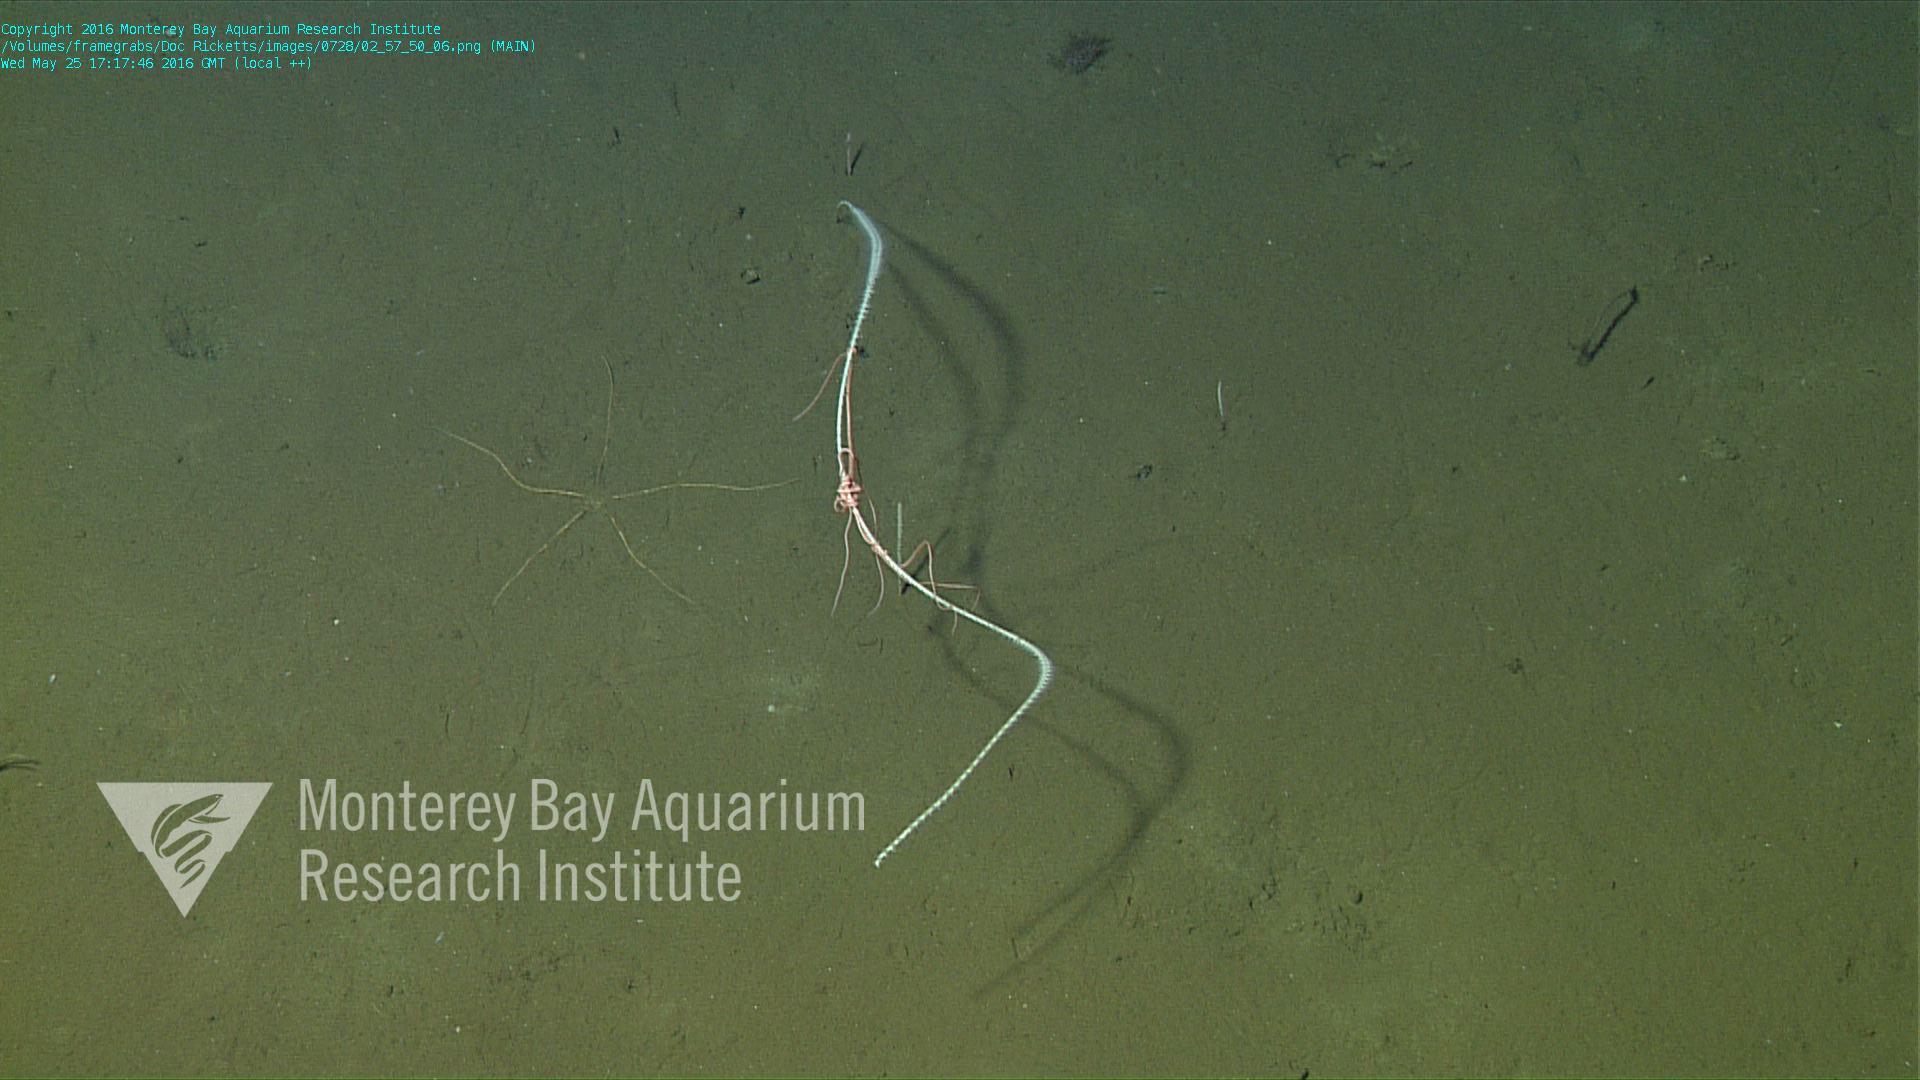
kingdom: Animalia
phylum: Cnidaria
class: Anthozoa
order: Scleralcyonacea
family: Protoptilidae
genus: Distichoptilum
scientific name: Distichoptilum
